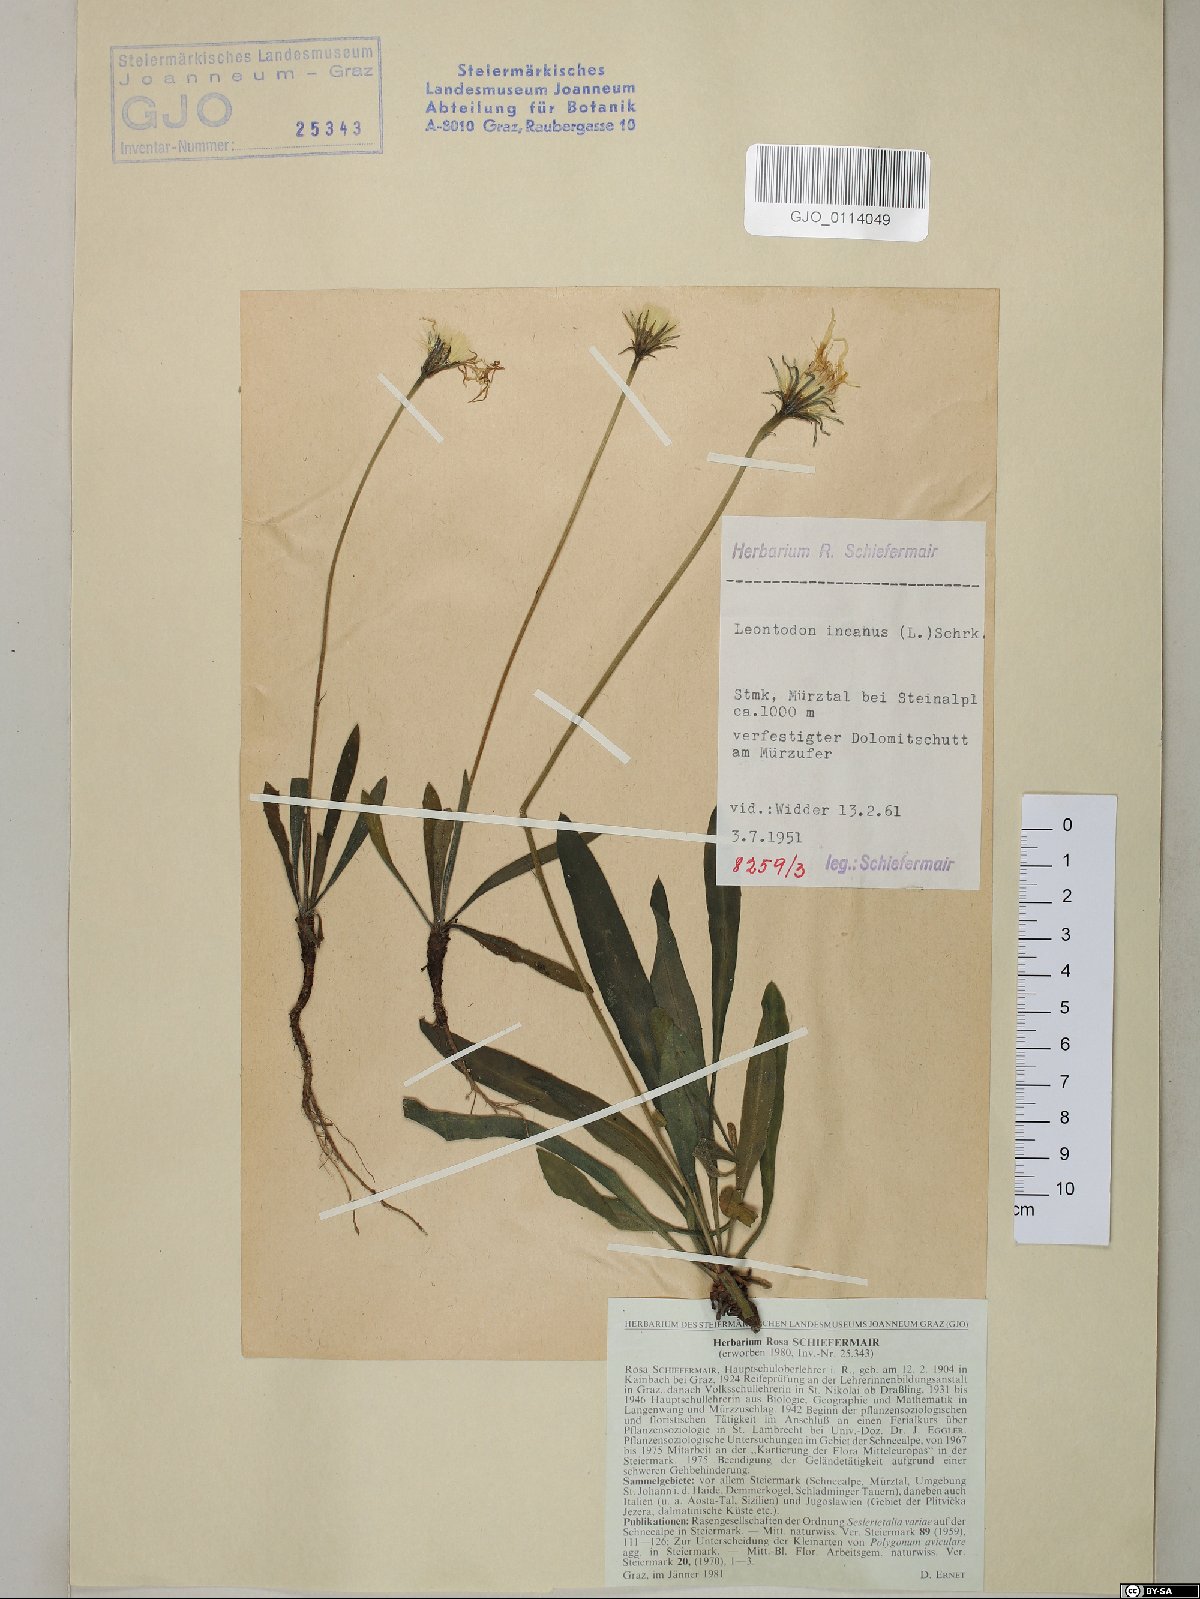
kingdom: Plantae
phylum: Tracheophyta
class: Magnoliopsida
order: Asterales
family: Asteraceae
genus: Leontodon
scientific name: Leontodon incanus
